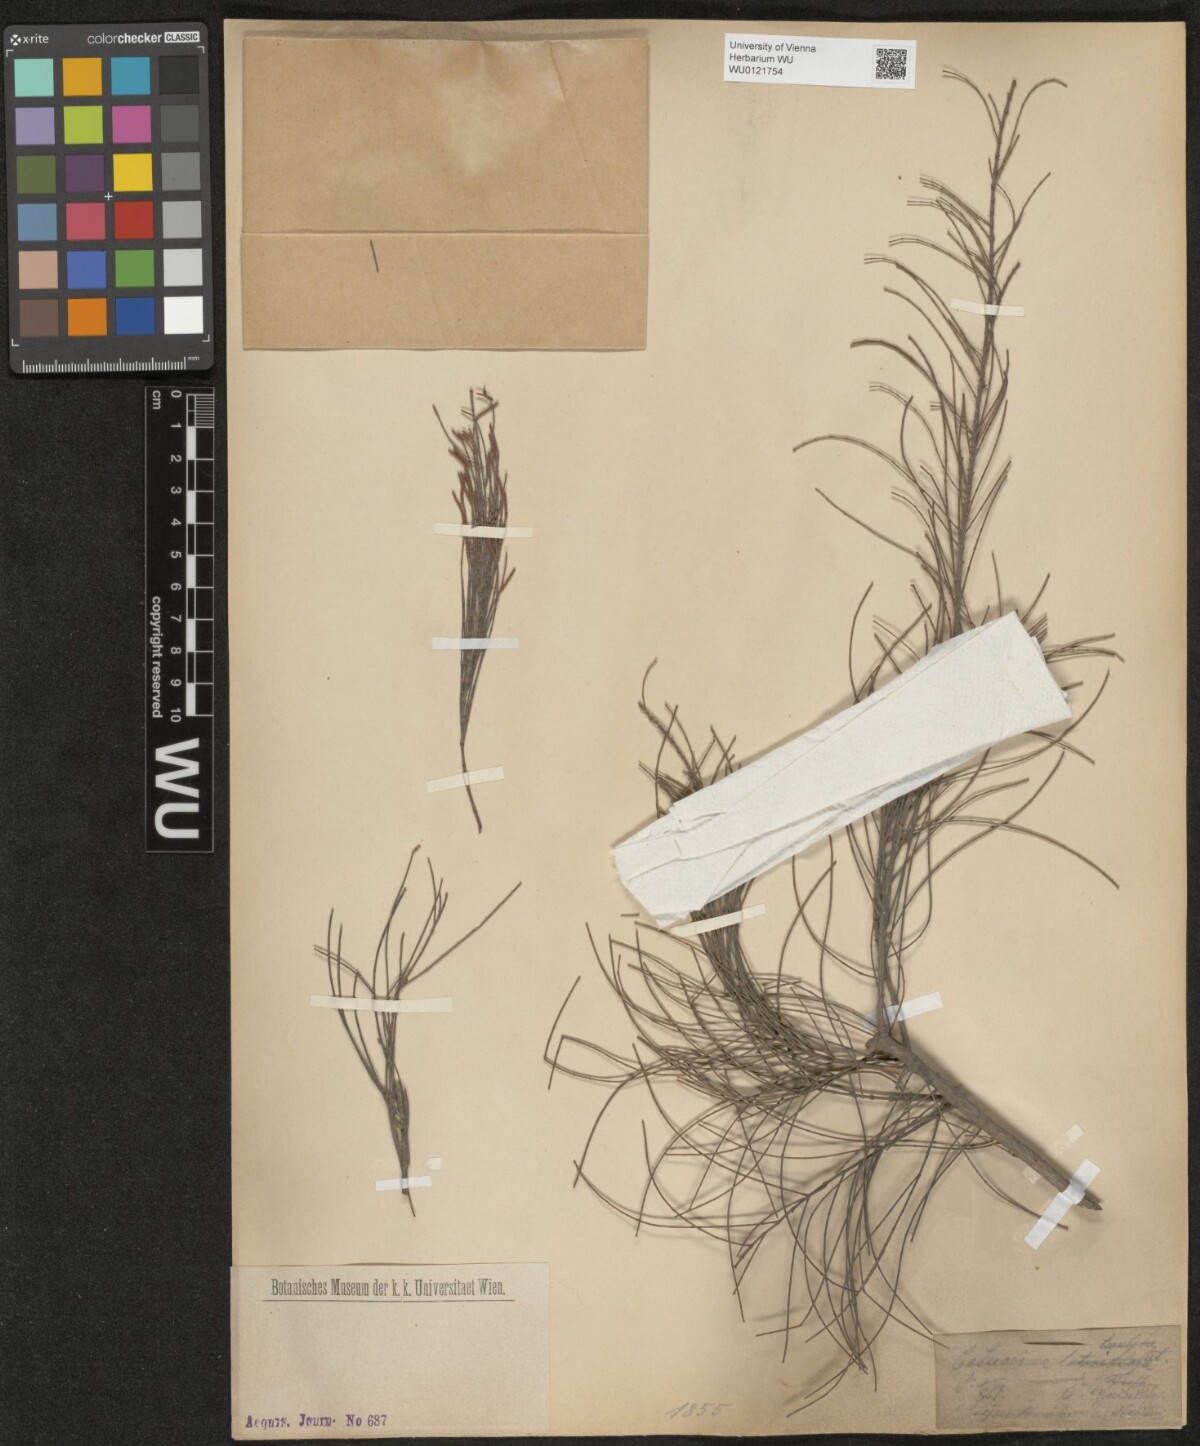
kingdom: Plantae
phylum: Tracheophyta
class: Magnoliopsida
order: Fagales
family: Casuarinaceae
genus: Casuarina
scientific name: Casuarina
